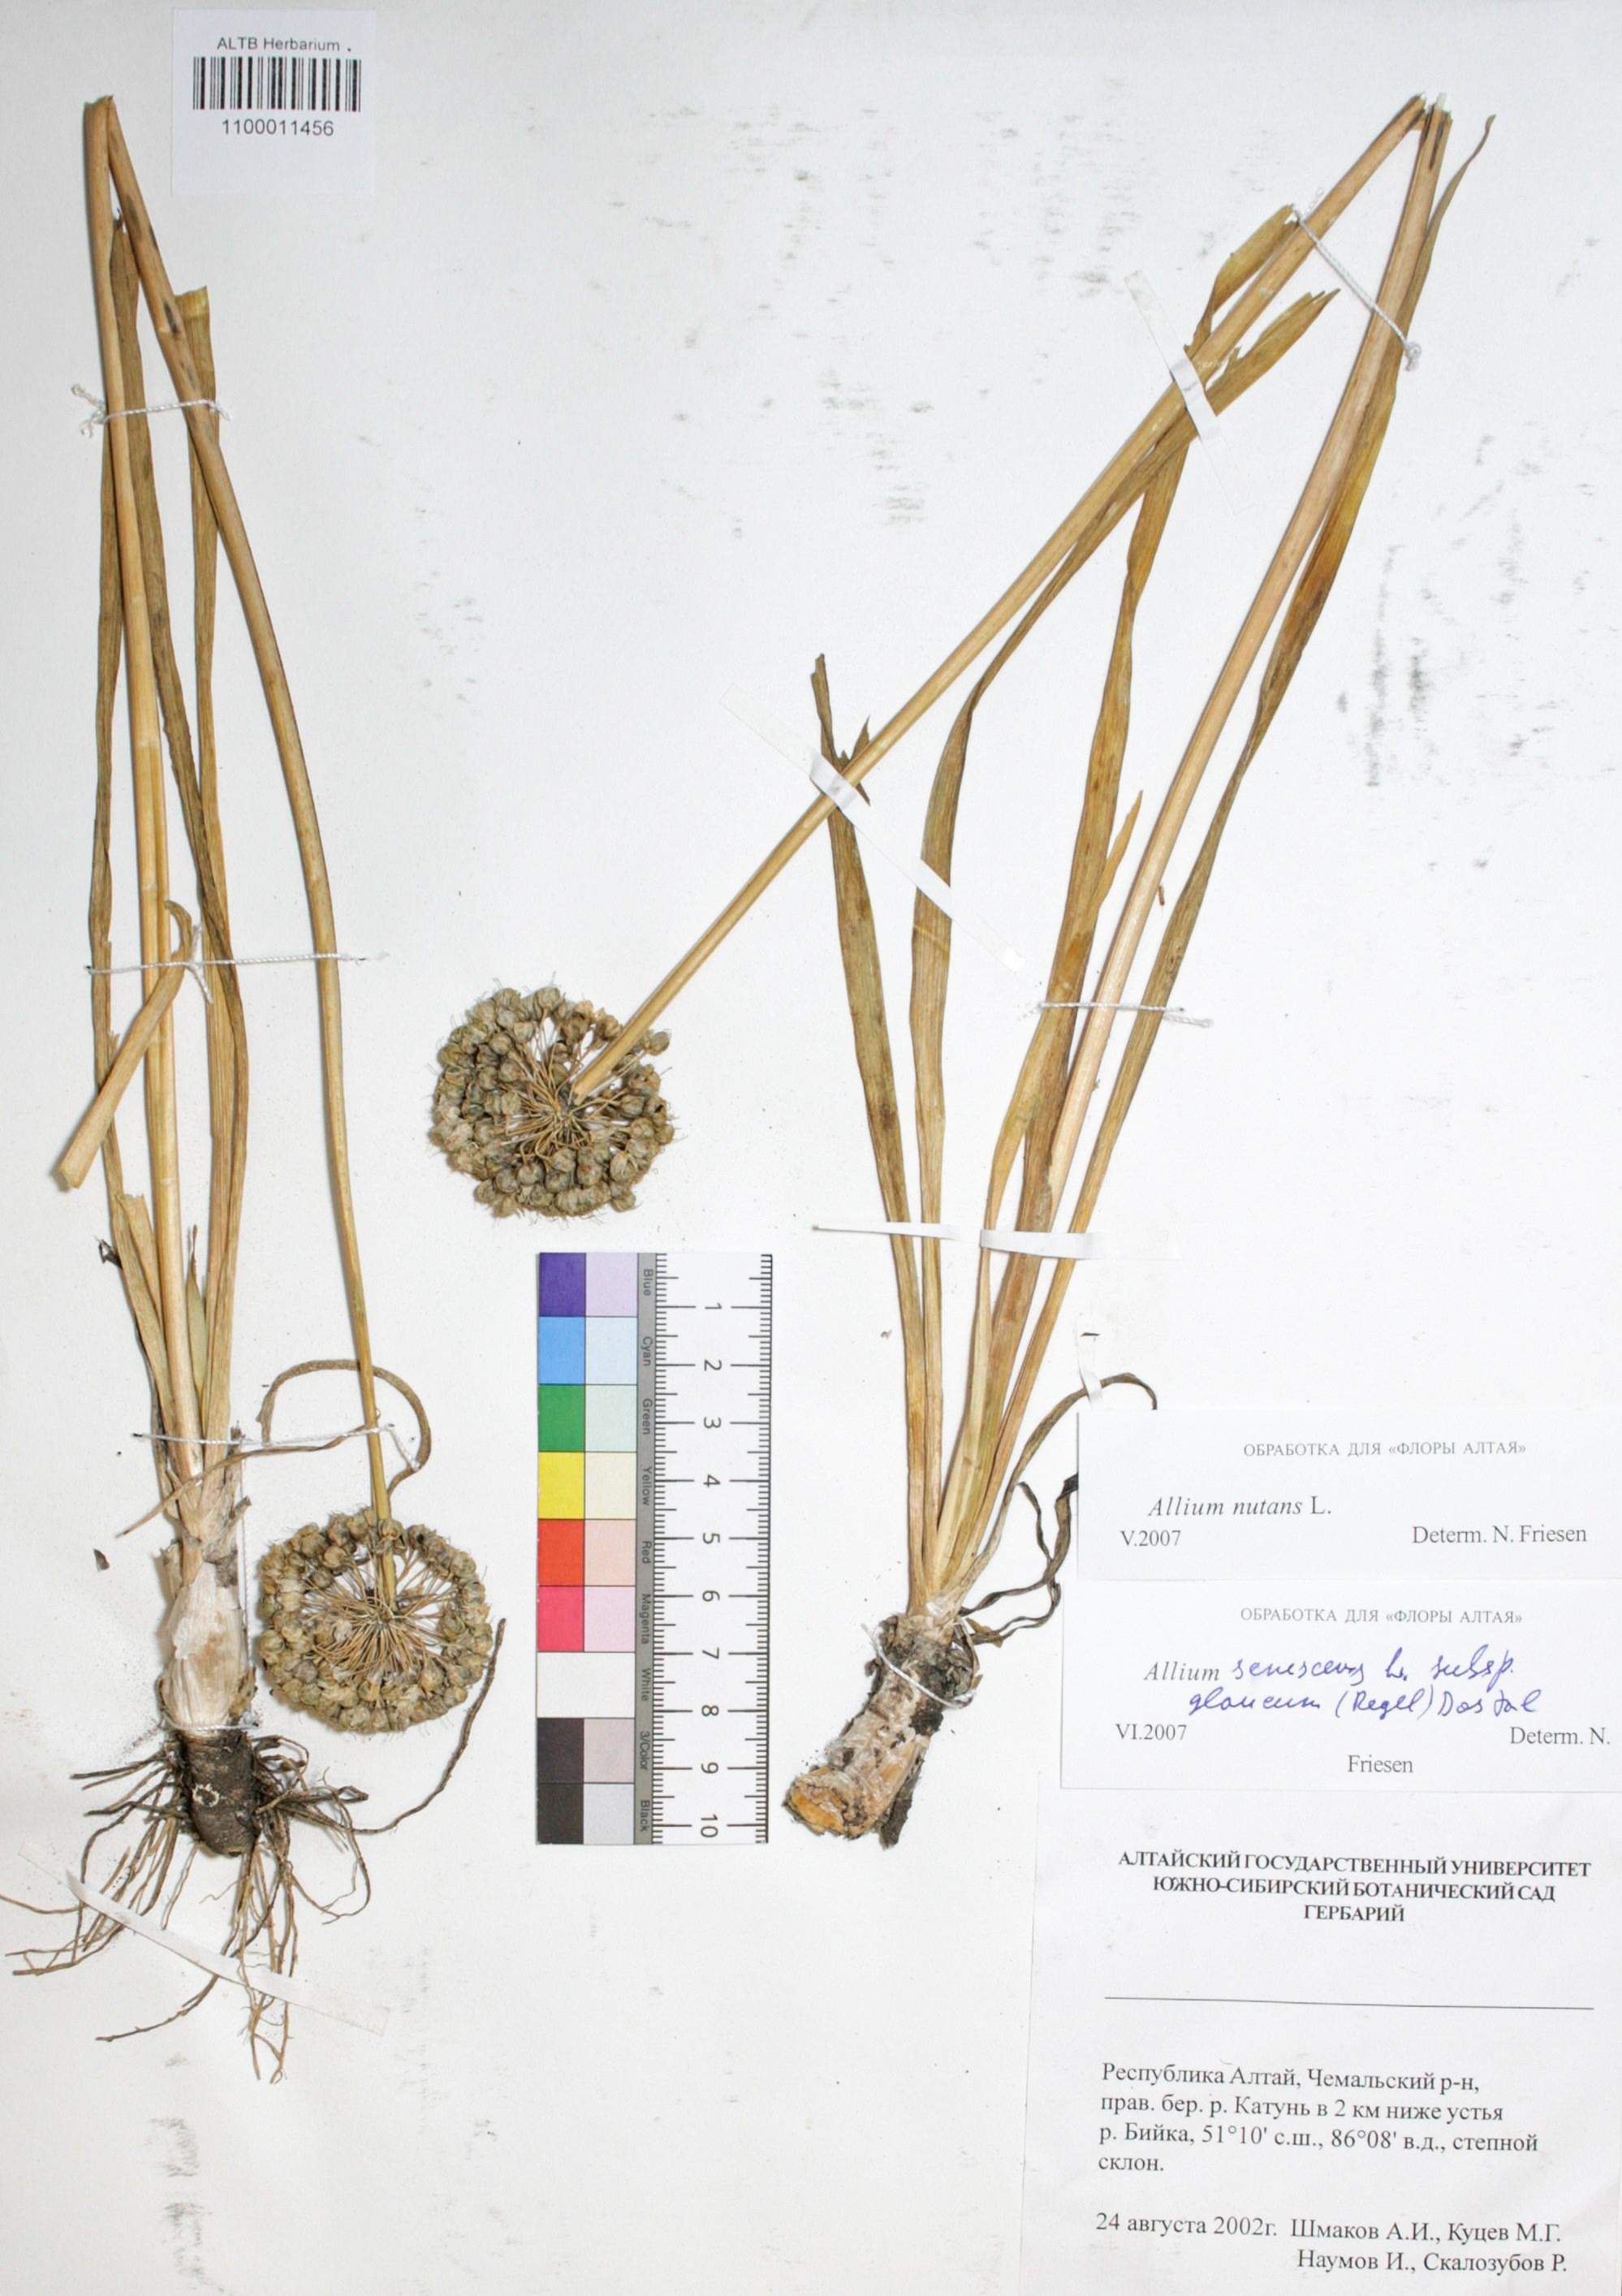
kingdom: Plantae
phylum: Tracheophyta
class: Liliopsida
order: Asparagales
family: Amaryllidaceae
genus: Allium
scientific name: Allium nutans
